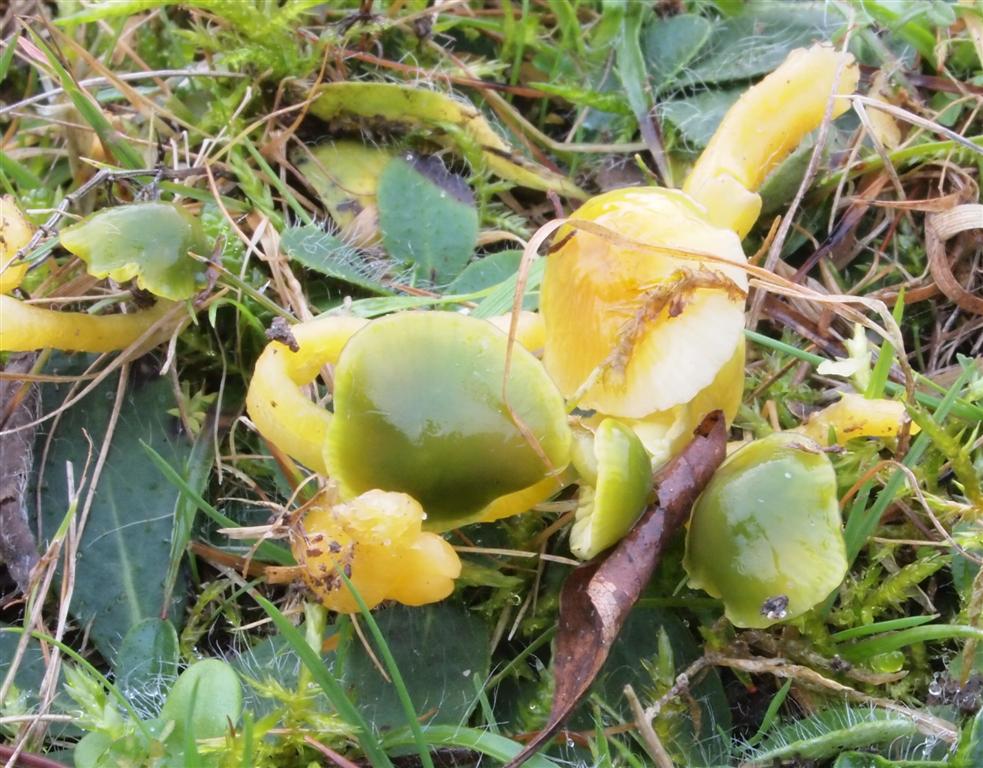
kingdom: Fungi
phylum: Basidiomycota
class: Agaricomycetes
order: Agaricales
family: Hygrophoraceae
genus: Gliophorus
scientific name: Gliophorus psittacinus
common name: papegøje-vokshat
